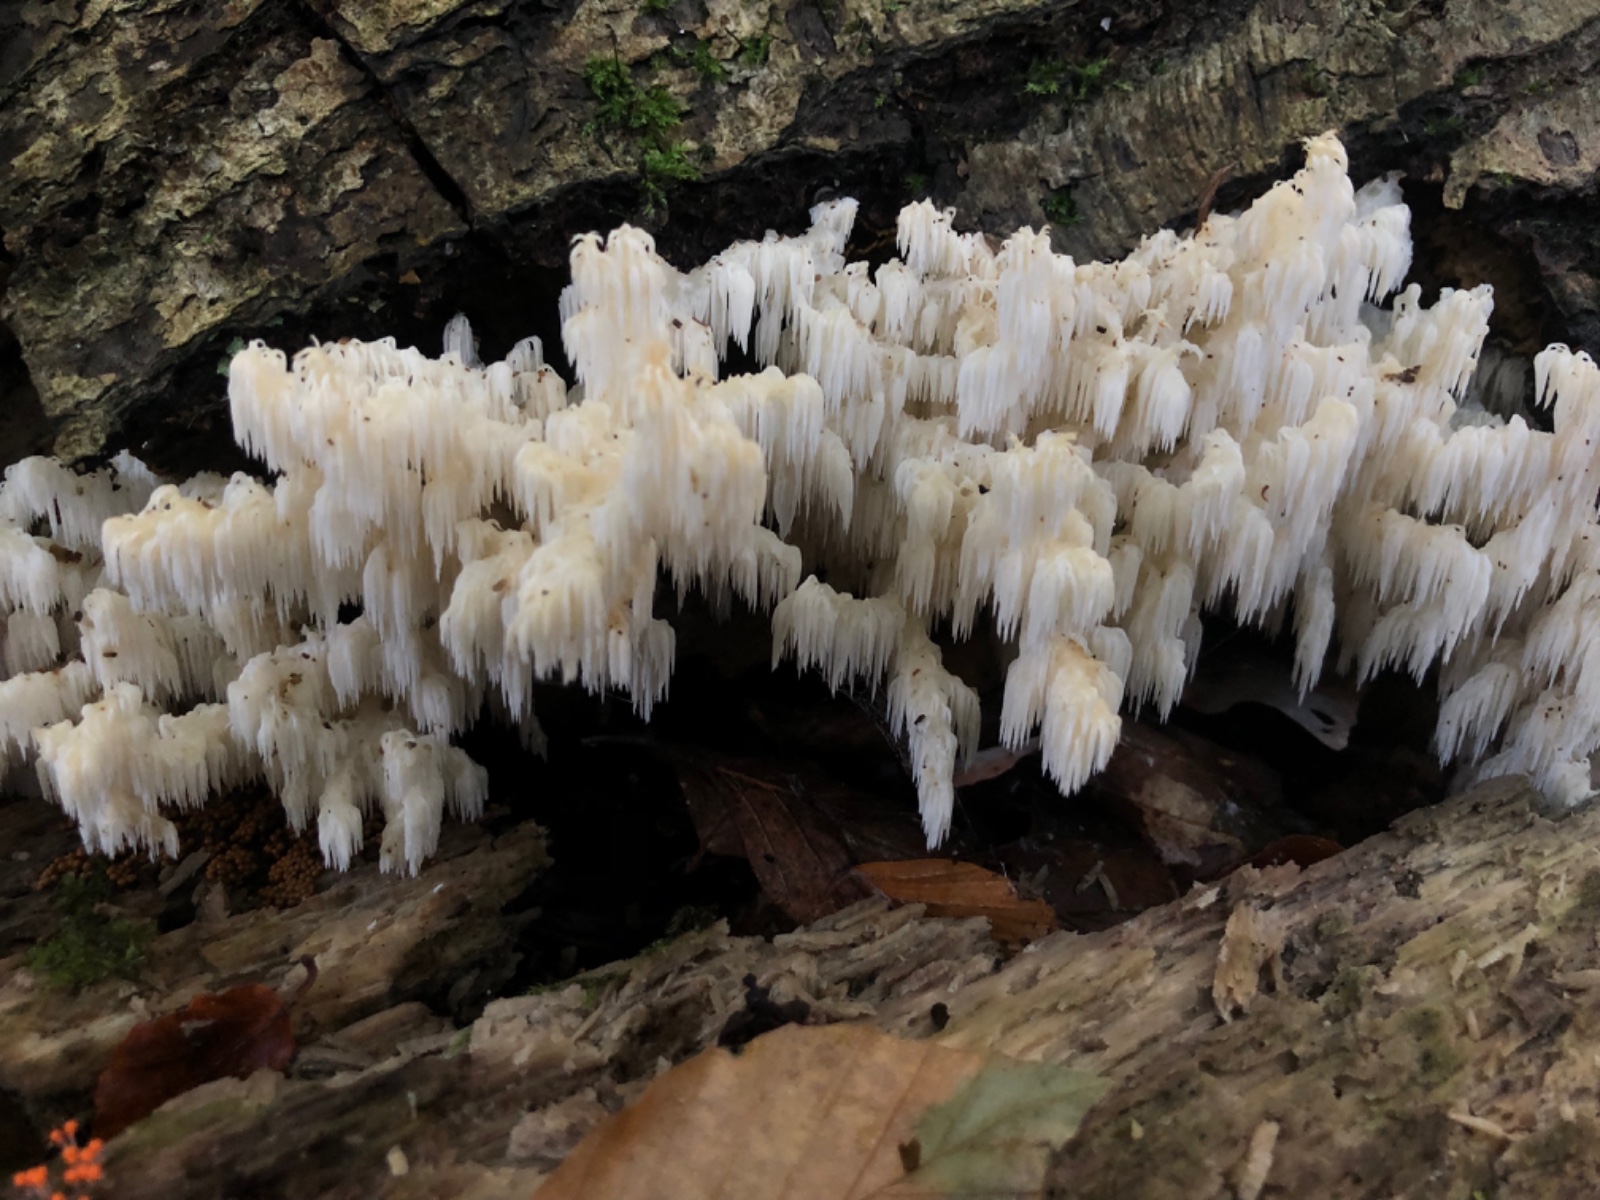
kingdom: Fungi
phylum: Basidiomycota
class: Agaricomycetes
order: Russulales
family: Hericiaceae
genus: Hericium
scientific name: Hericium coralloides
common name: koralpigsvamp
